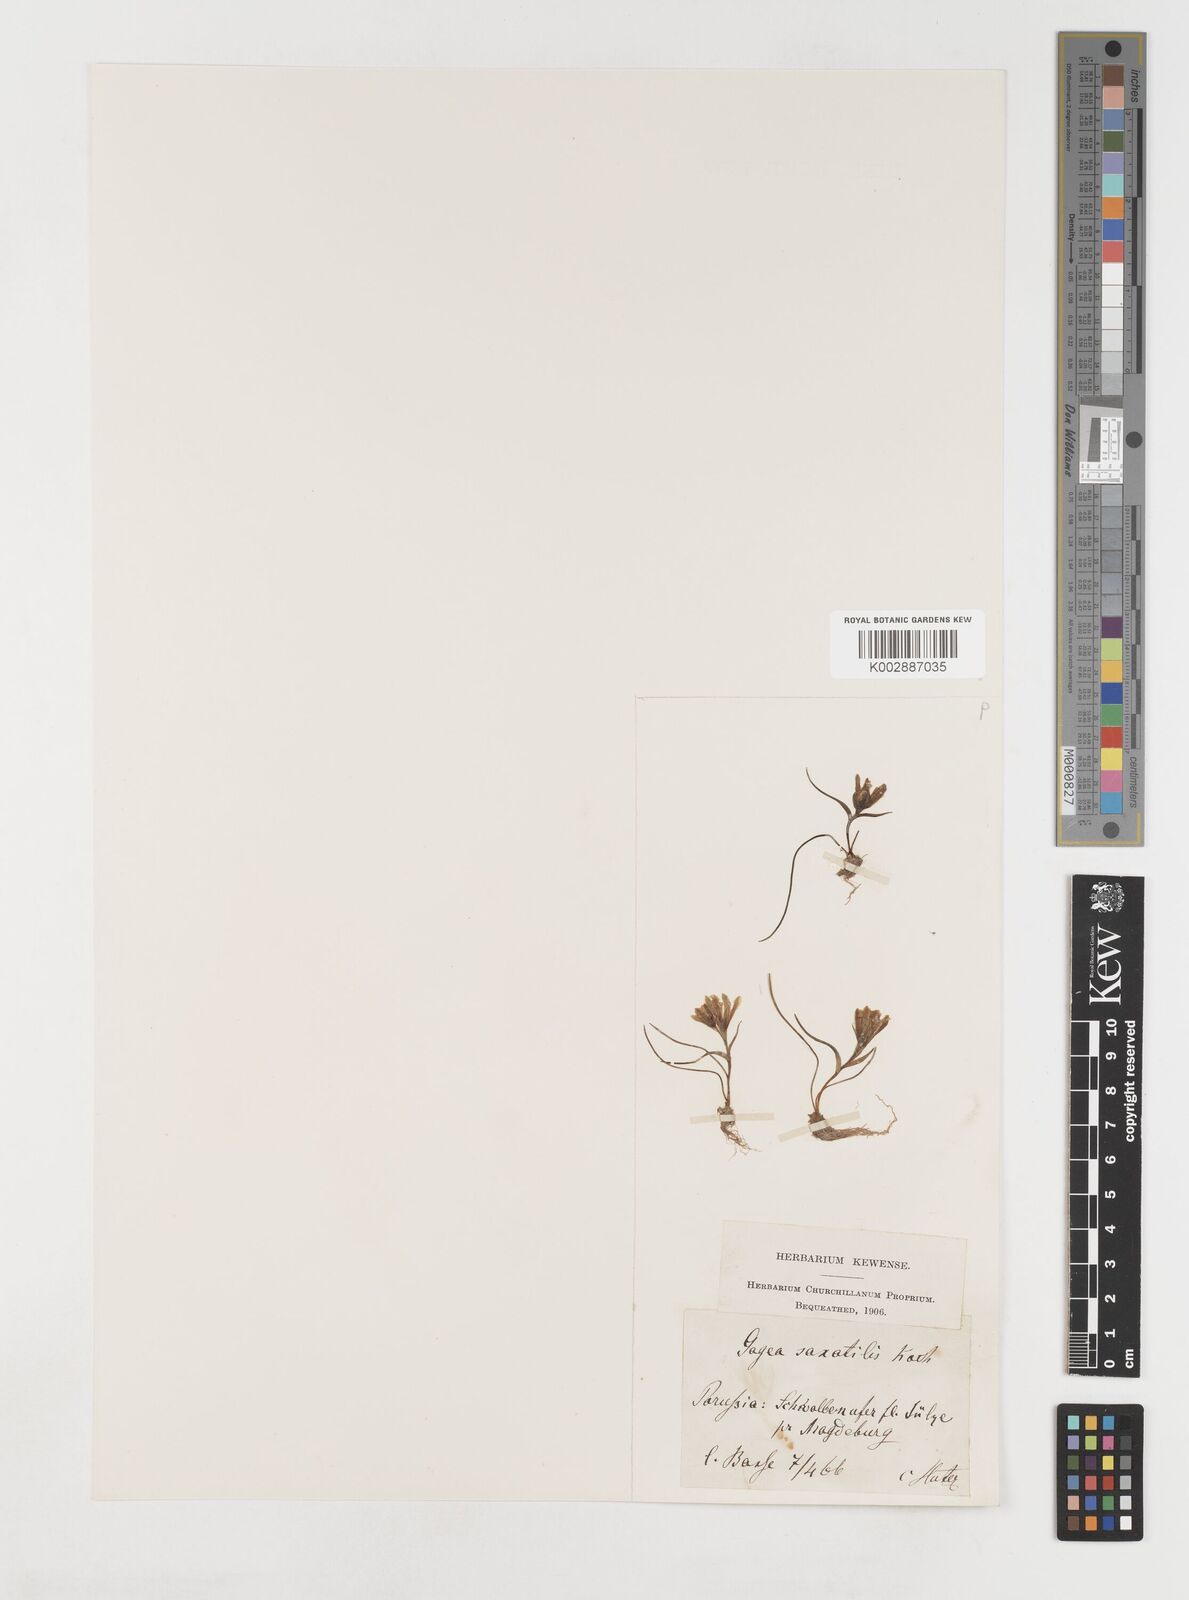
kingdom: Plantae
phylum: Tracheophyta
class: Liliopsida
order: Liliales
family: Liliaceae
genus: Gagea
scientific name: Gagea bohemica
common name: Early star-of-bethlehem
